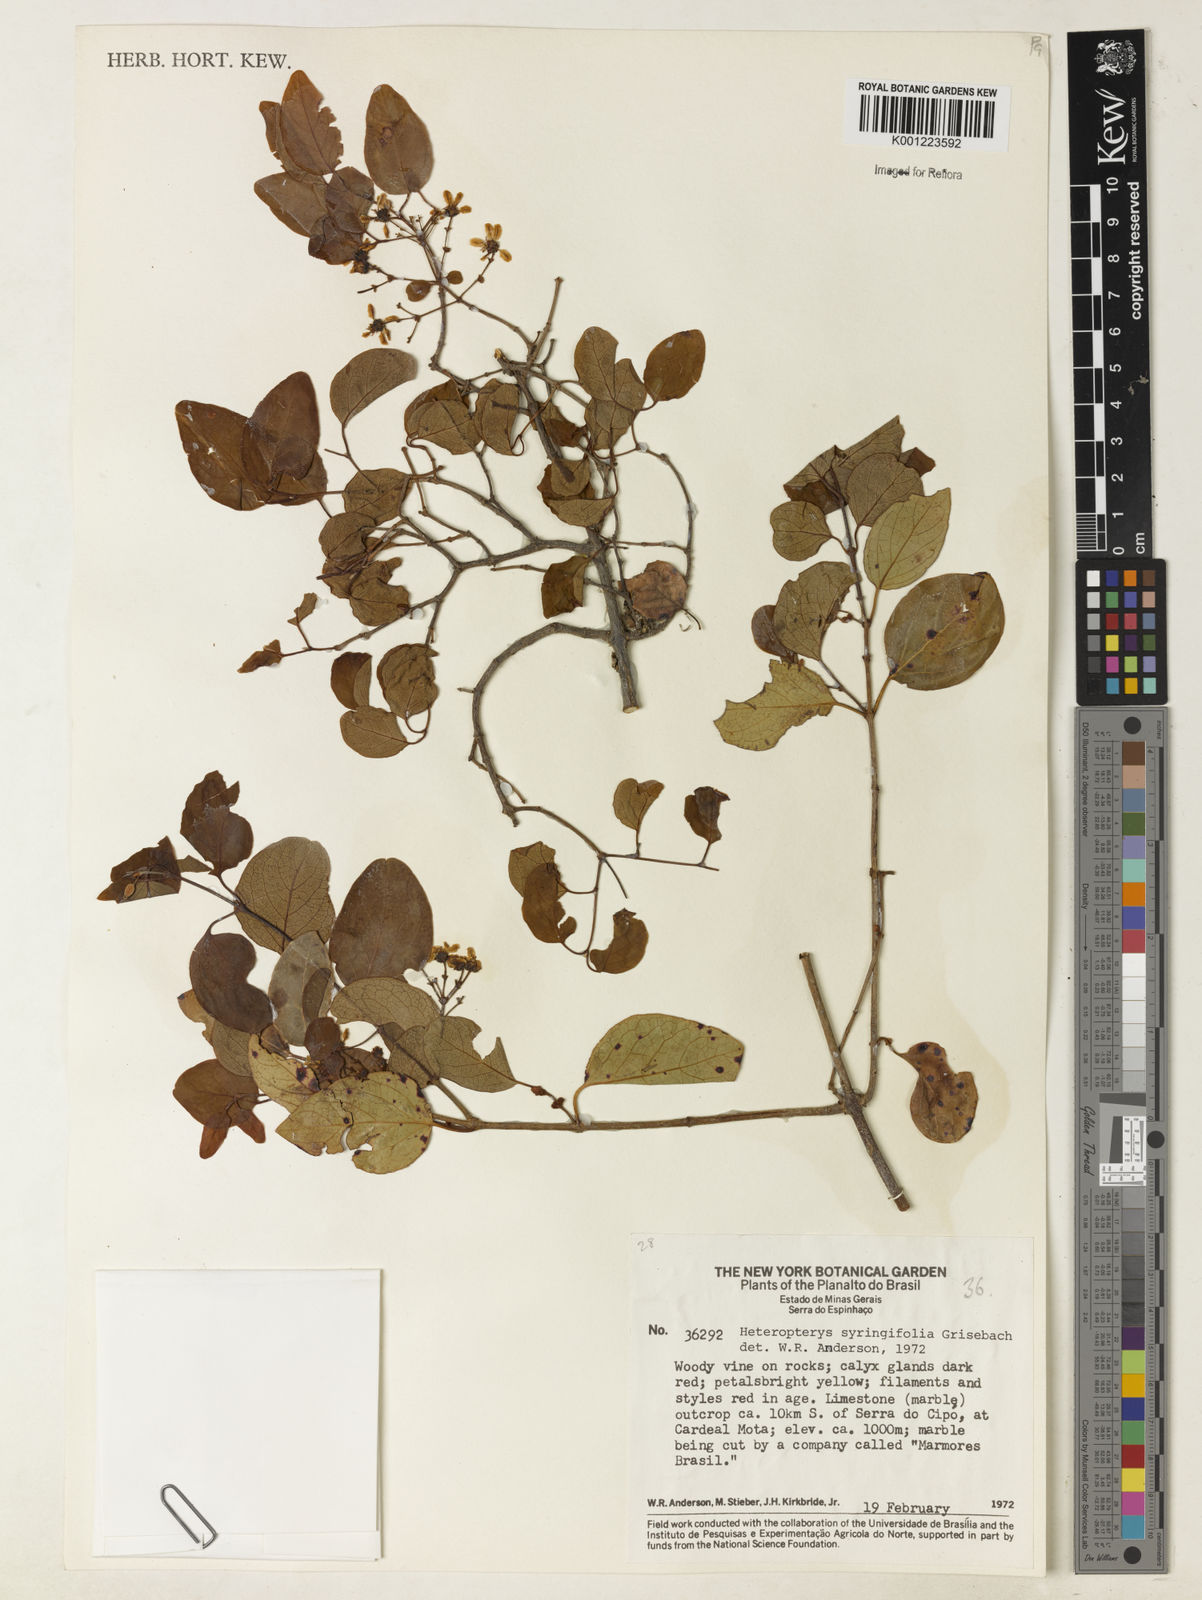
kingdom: Plantae
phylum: Tracheophyta
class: Magnoliopsida
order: Malpighiales
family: Malpighiaceae
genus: Heteropterys
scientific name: Heteropterys syringifolia
